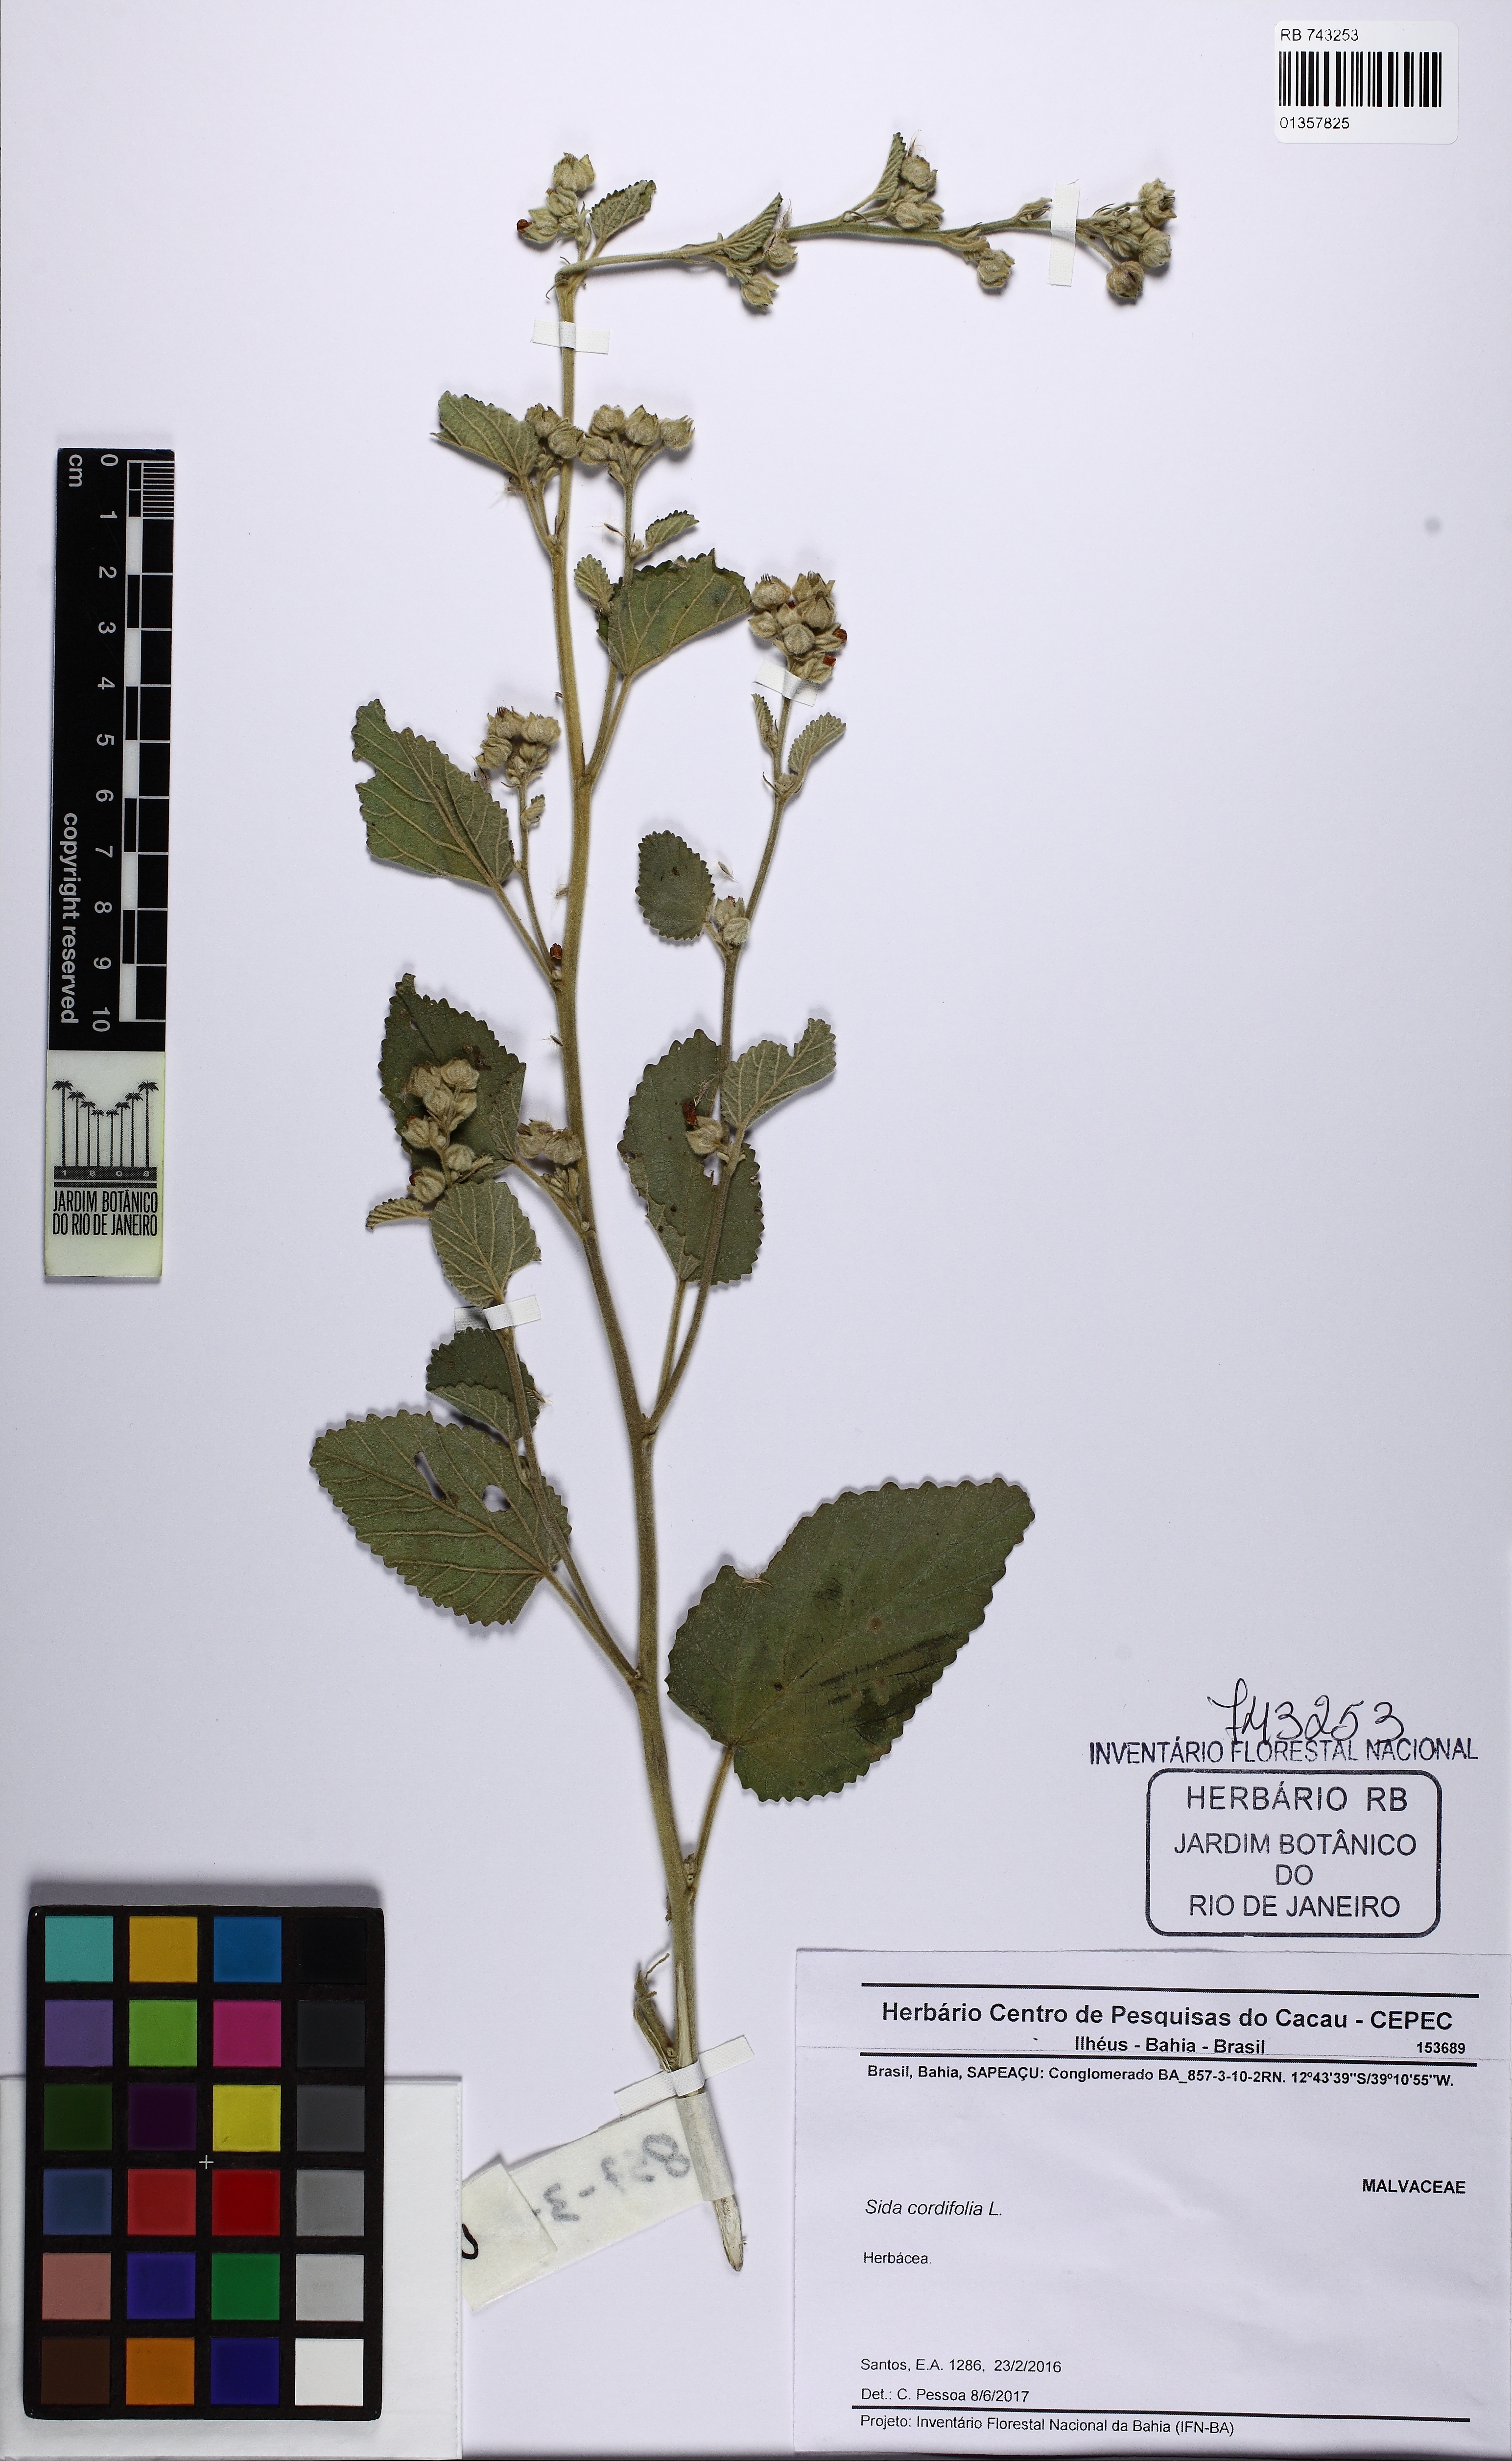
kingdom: Plantae
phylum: Tracheophyta
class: Magnoliopsida
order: Malvales
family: Malvaceae
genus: Sida
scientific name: Sida cordifolia
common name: Ilima
